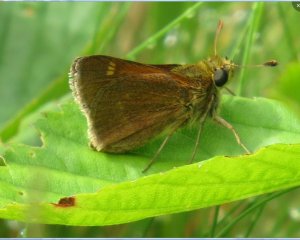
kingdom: Animalia
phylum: Arthropoda
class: Insecta
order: Lepidoptera
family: Hesperiidae
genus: Polites
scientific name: Polites themistocles
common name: Tawny-edged Skipper
